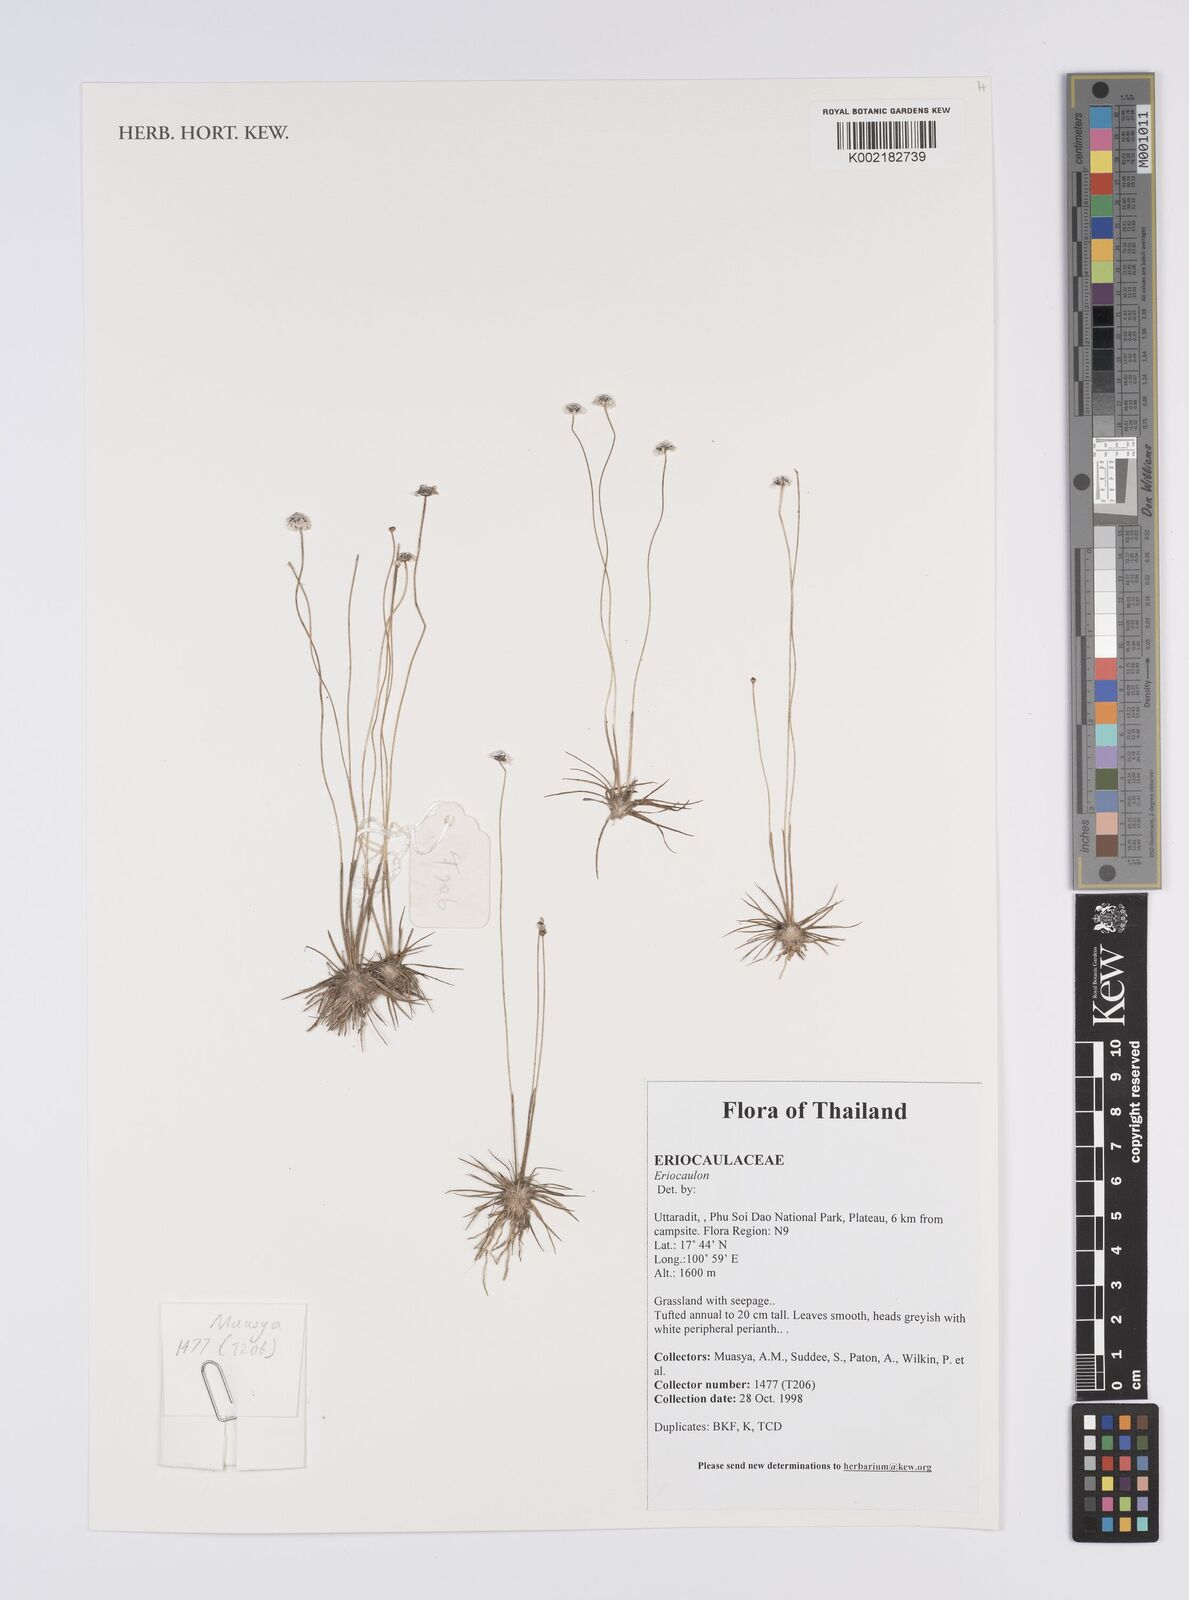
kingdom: Plantae
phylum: Tracheophyta
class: Liliopsida
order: Poales
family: Eriocaulaceae
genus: Eriocaulon
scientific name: Eriocaulon
